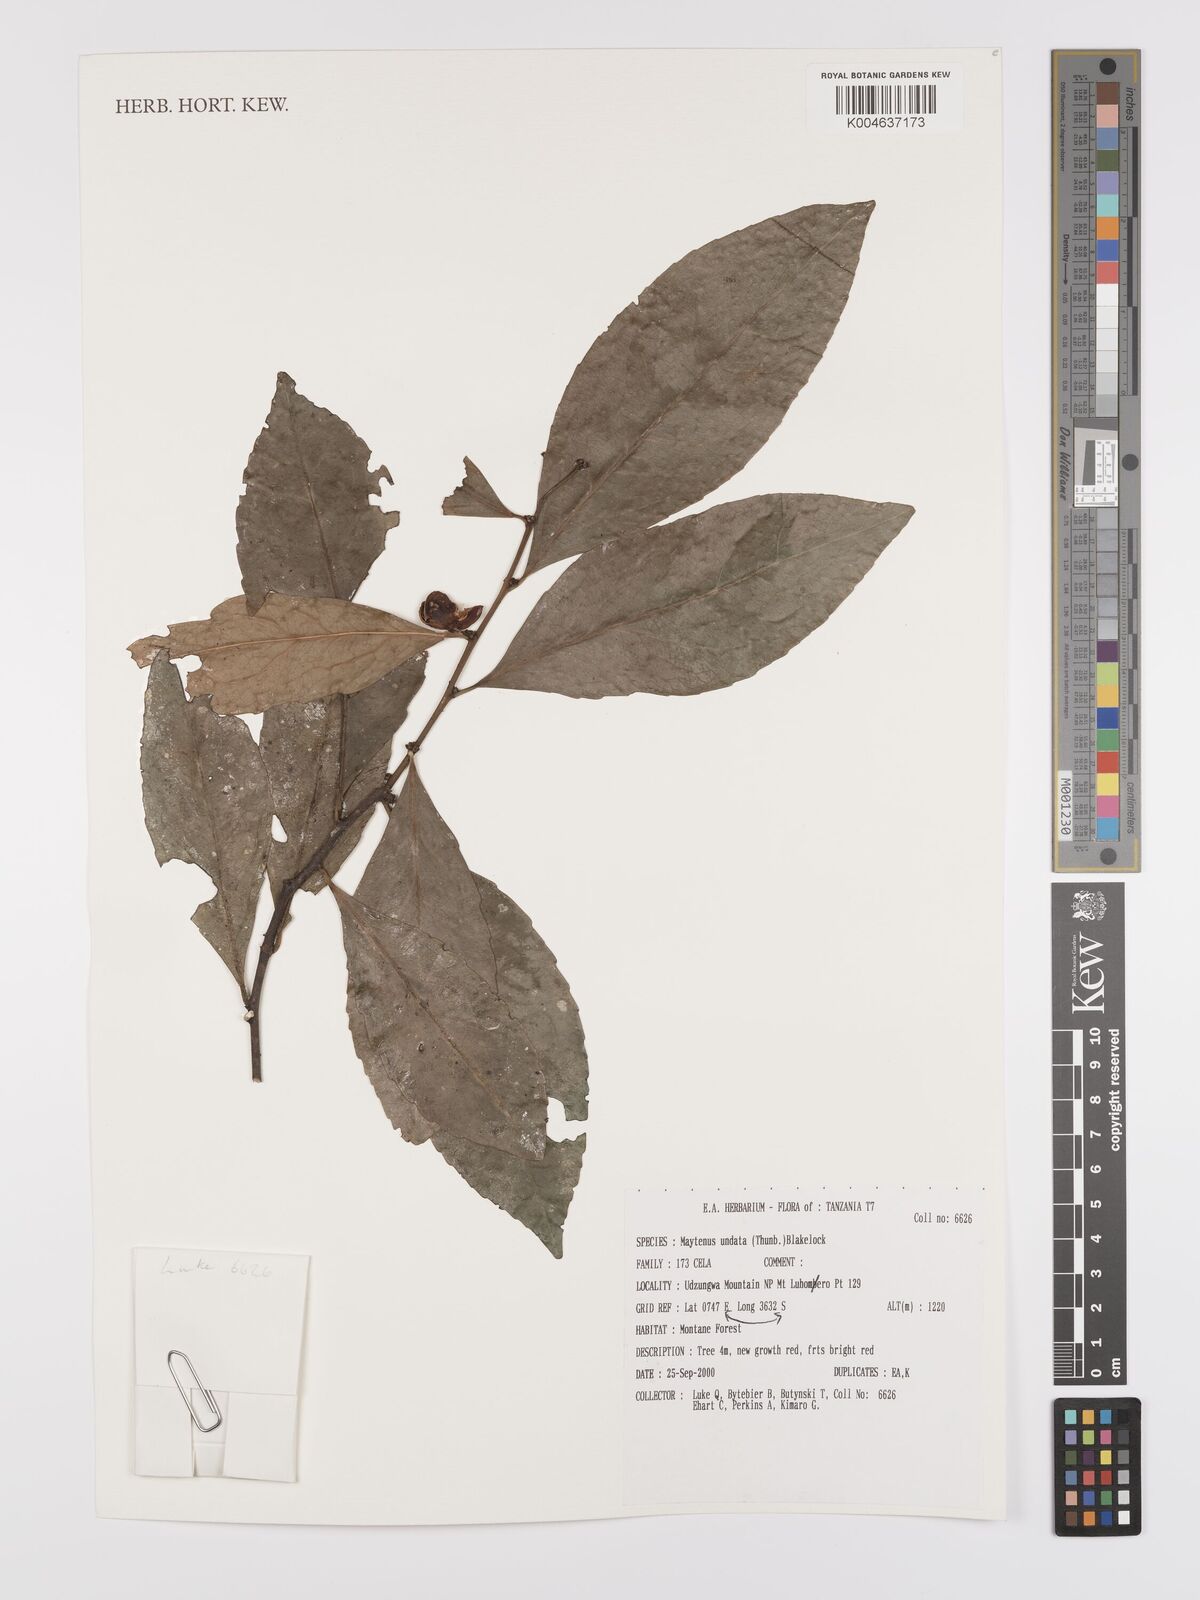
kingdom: Plantae
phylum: Tracheophyta
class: Magnoliopsida
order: Celastrales
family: Celastraceae
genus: Gymnosporia
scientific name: Gymnosporia undata
